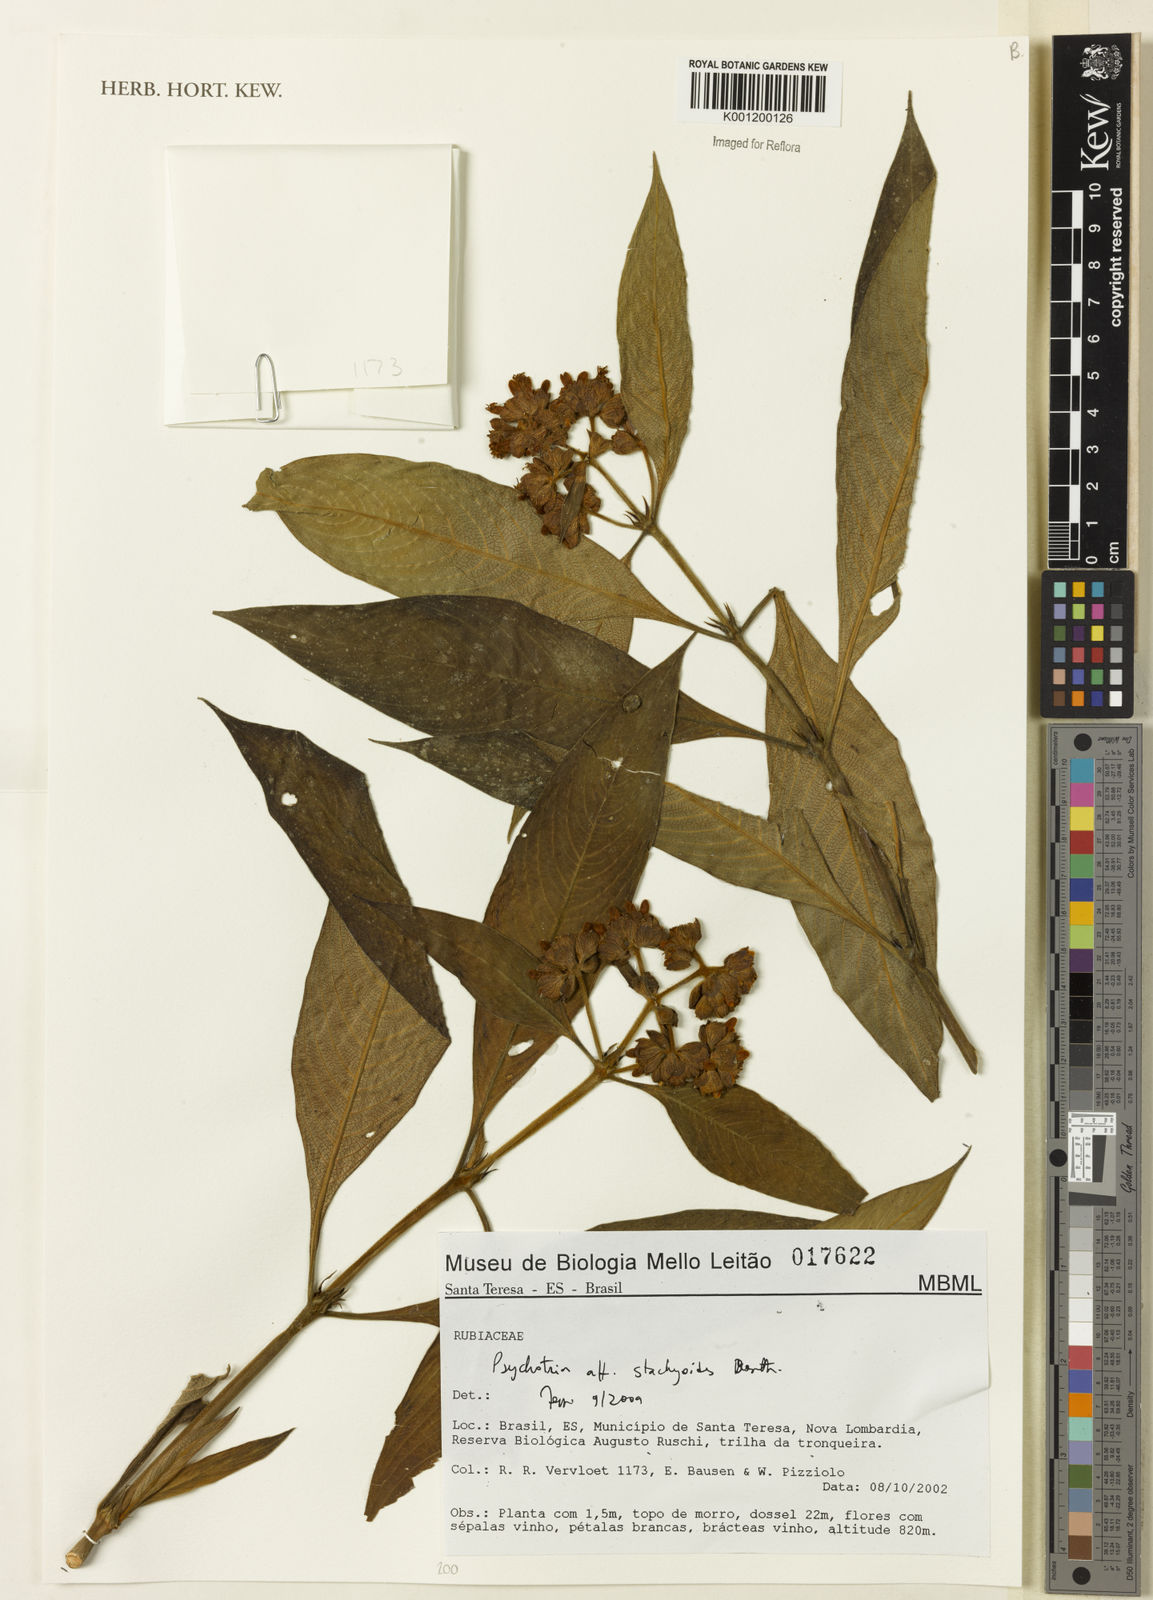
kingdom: Plantae
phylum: Tracheophyta
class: Magnoliopsida
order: Gentianales
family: Rubiaceae
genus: Psychotria
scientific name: Psychotria stachyoides
